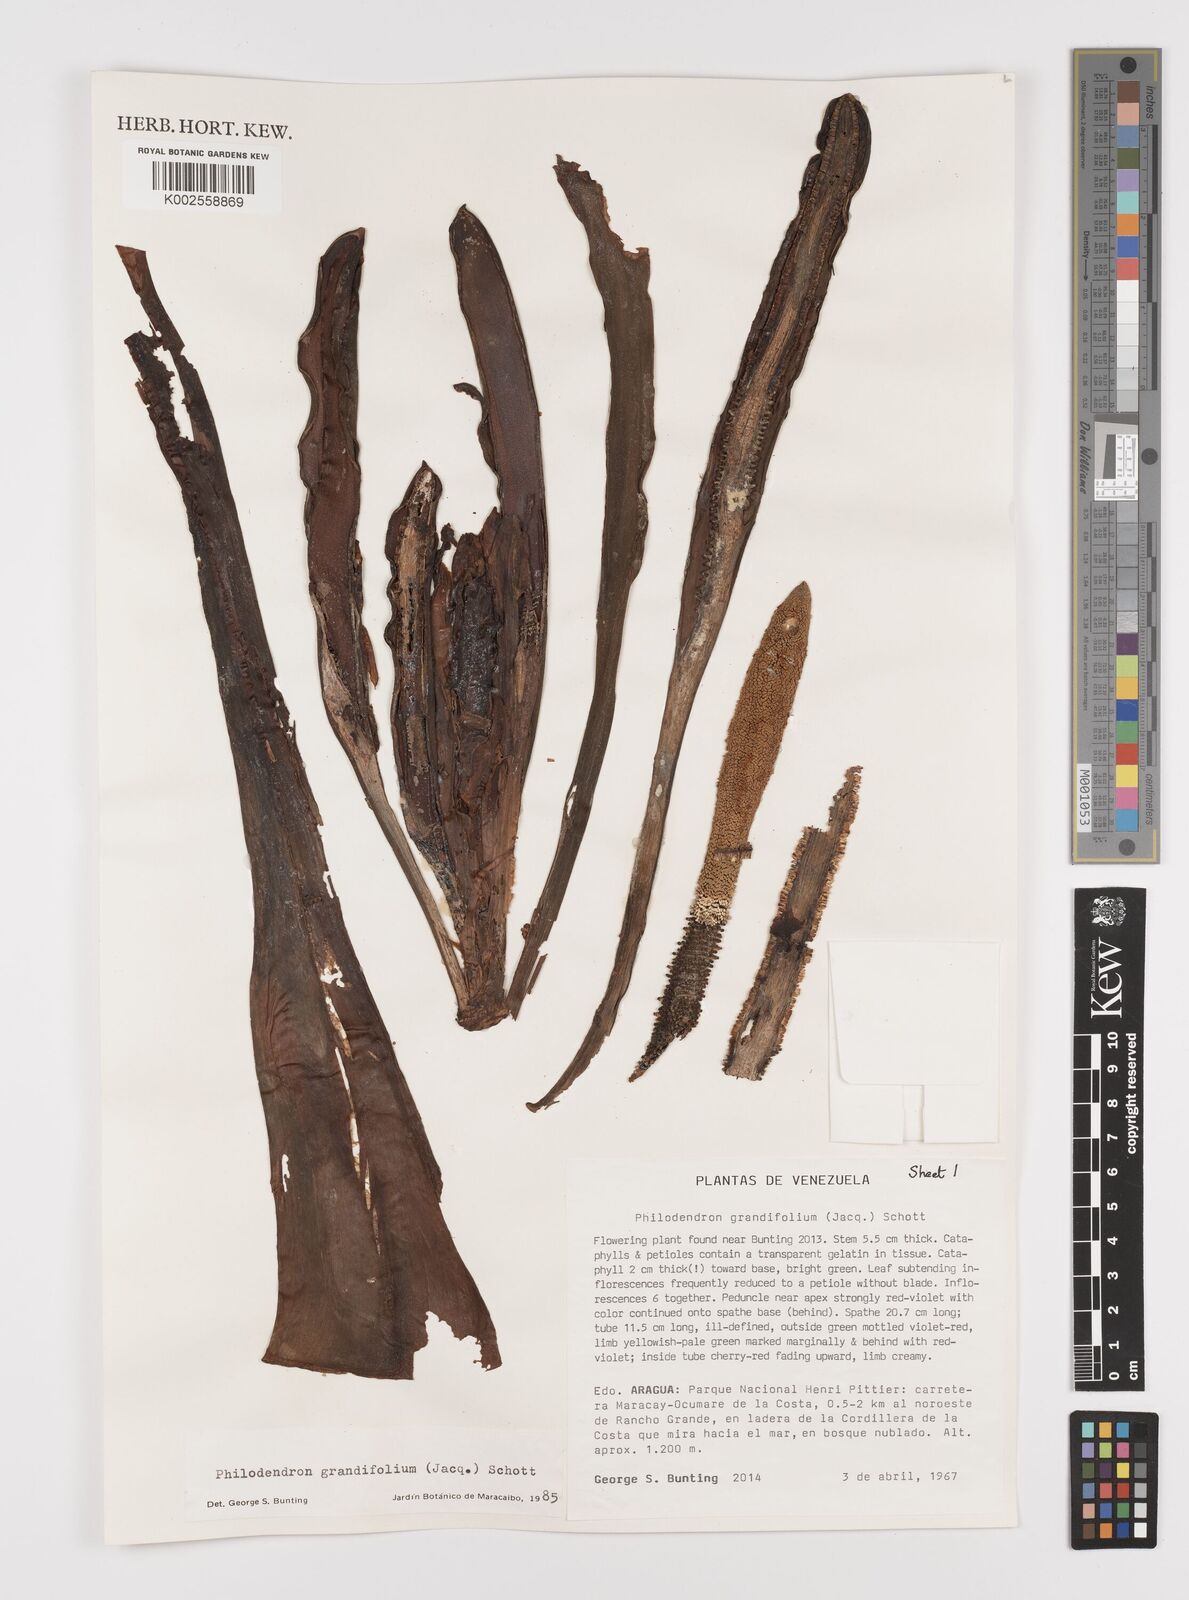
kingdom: Plantae
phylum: Tracheophyta
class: Liliopsida
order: Alismatales
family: Araceae
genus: Philodendron
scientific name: Philodendron grandifolium
